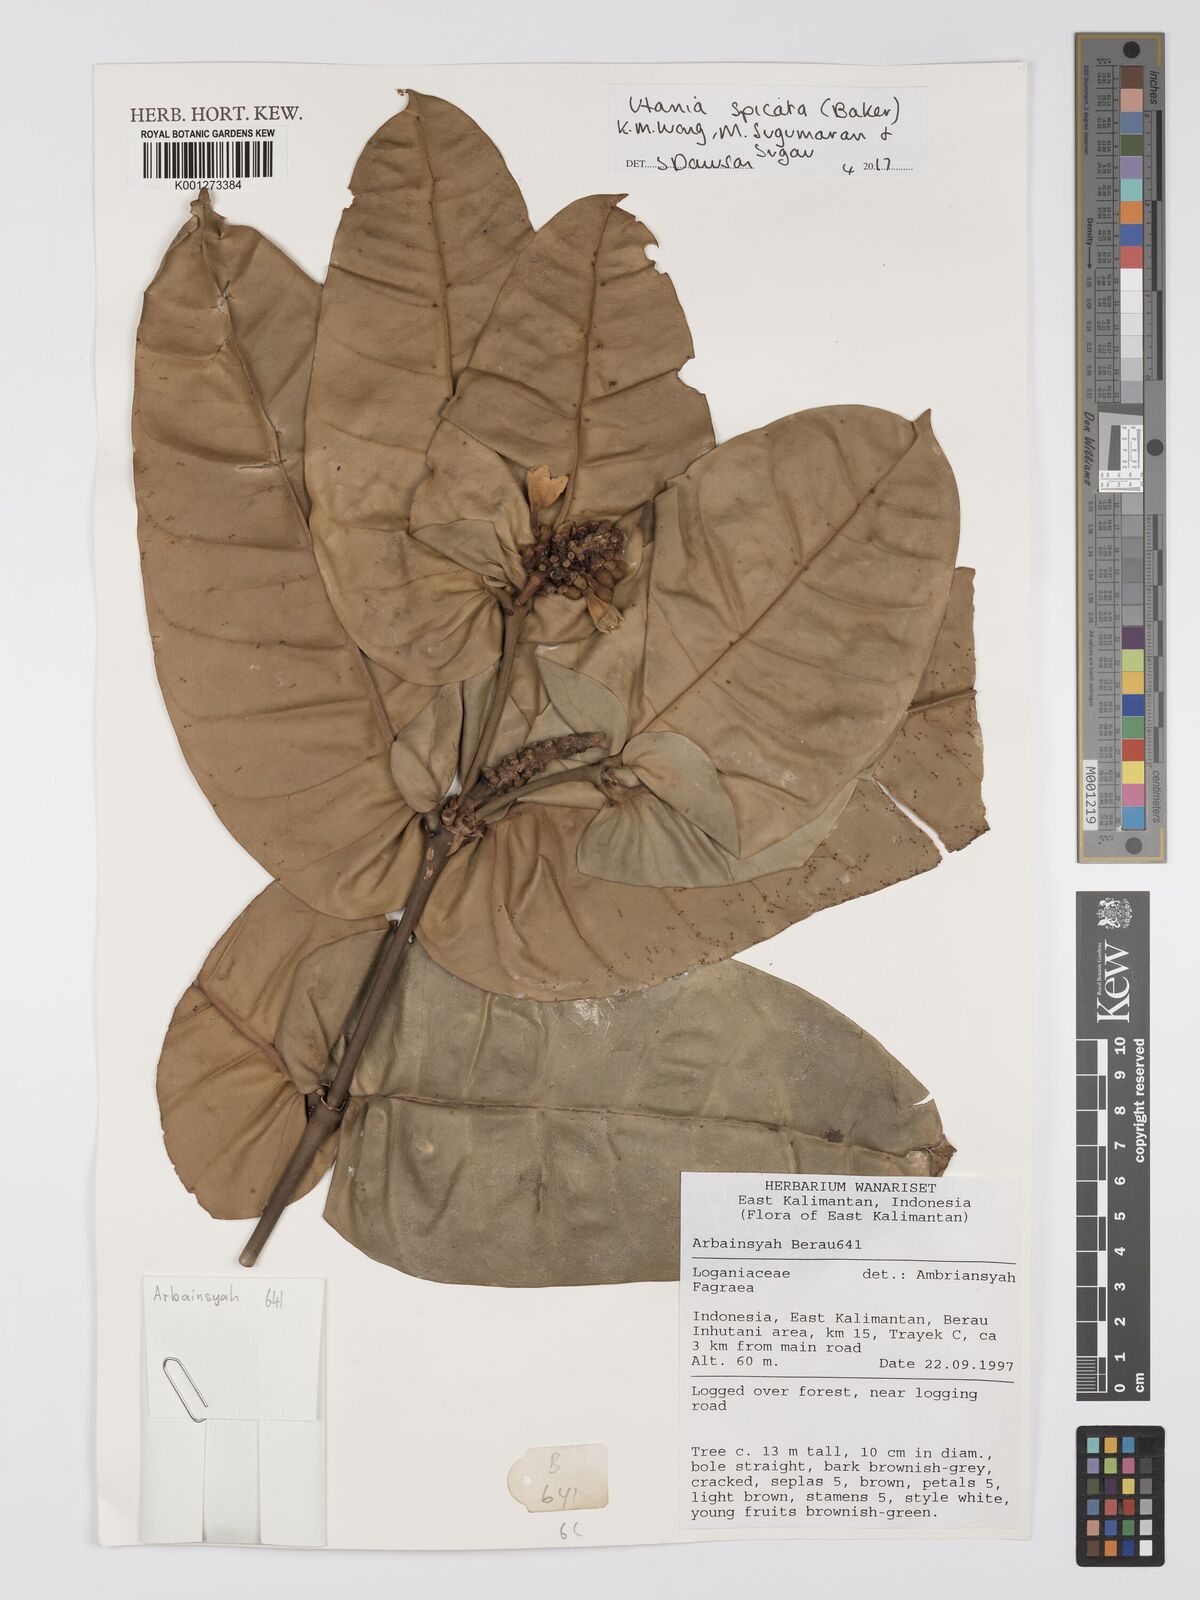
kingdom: Plantae
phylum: Tracheophyta
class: Magnoliopsida
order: Gentianales
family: Gentianaceae
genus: Utania
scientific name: Utania
